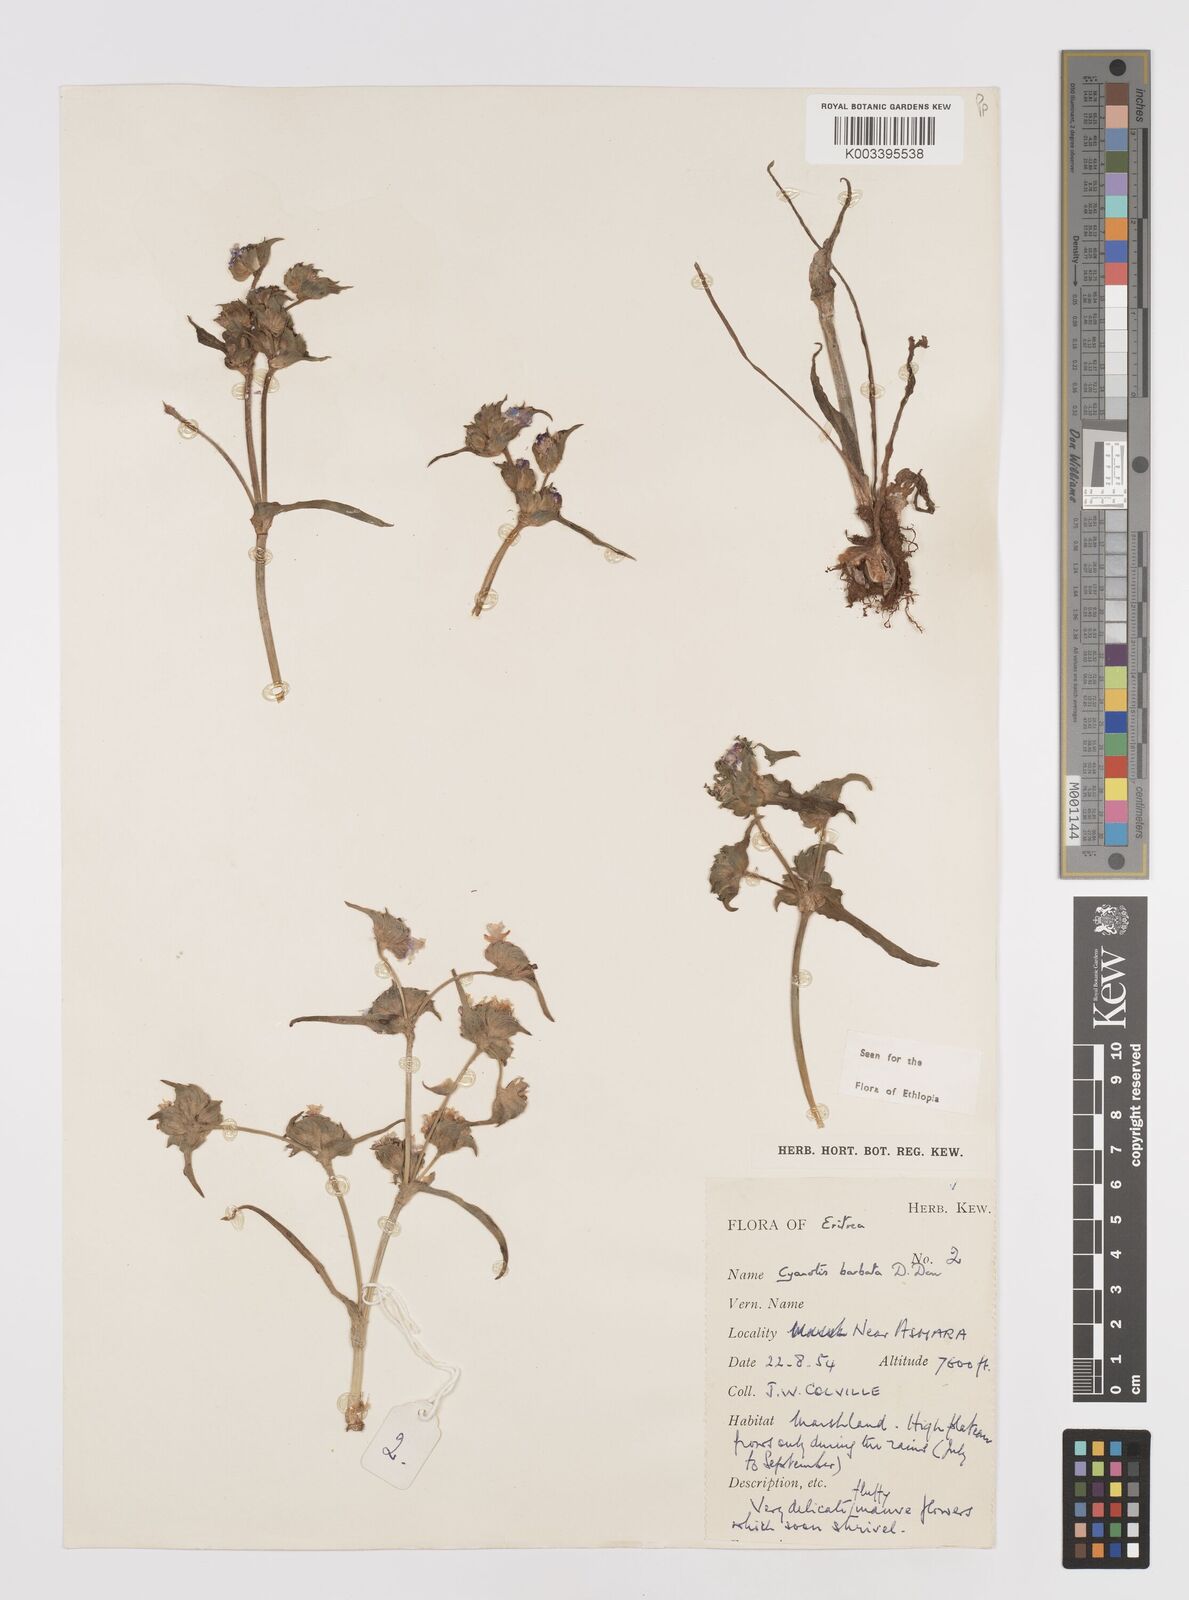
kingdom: Plantae
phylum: Tracheophyta
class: Liliopsida
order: Commelinales
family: Commelinaceae
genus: Cyanotis
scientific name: Cyanotis vaga
